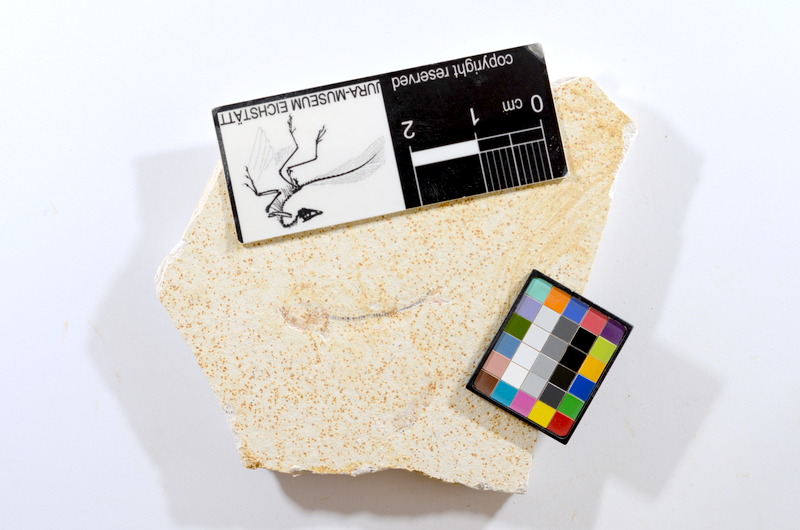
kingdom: Animalia
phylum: Chordata
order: Salmoniformes
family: Orthogonikleithridae
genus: Orthogonikleithrus
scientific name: Orthogonikleithrus hoelli
